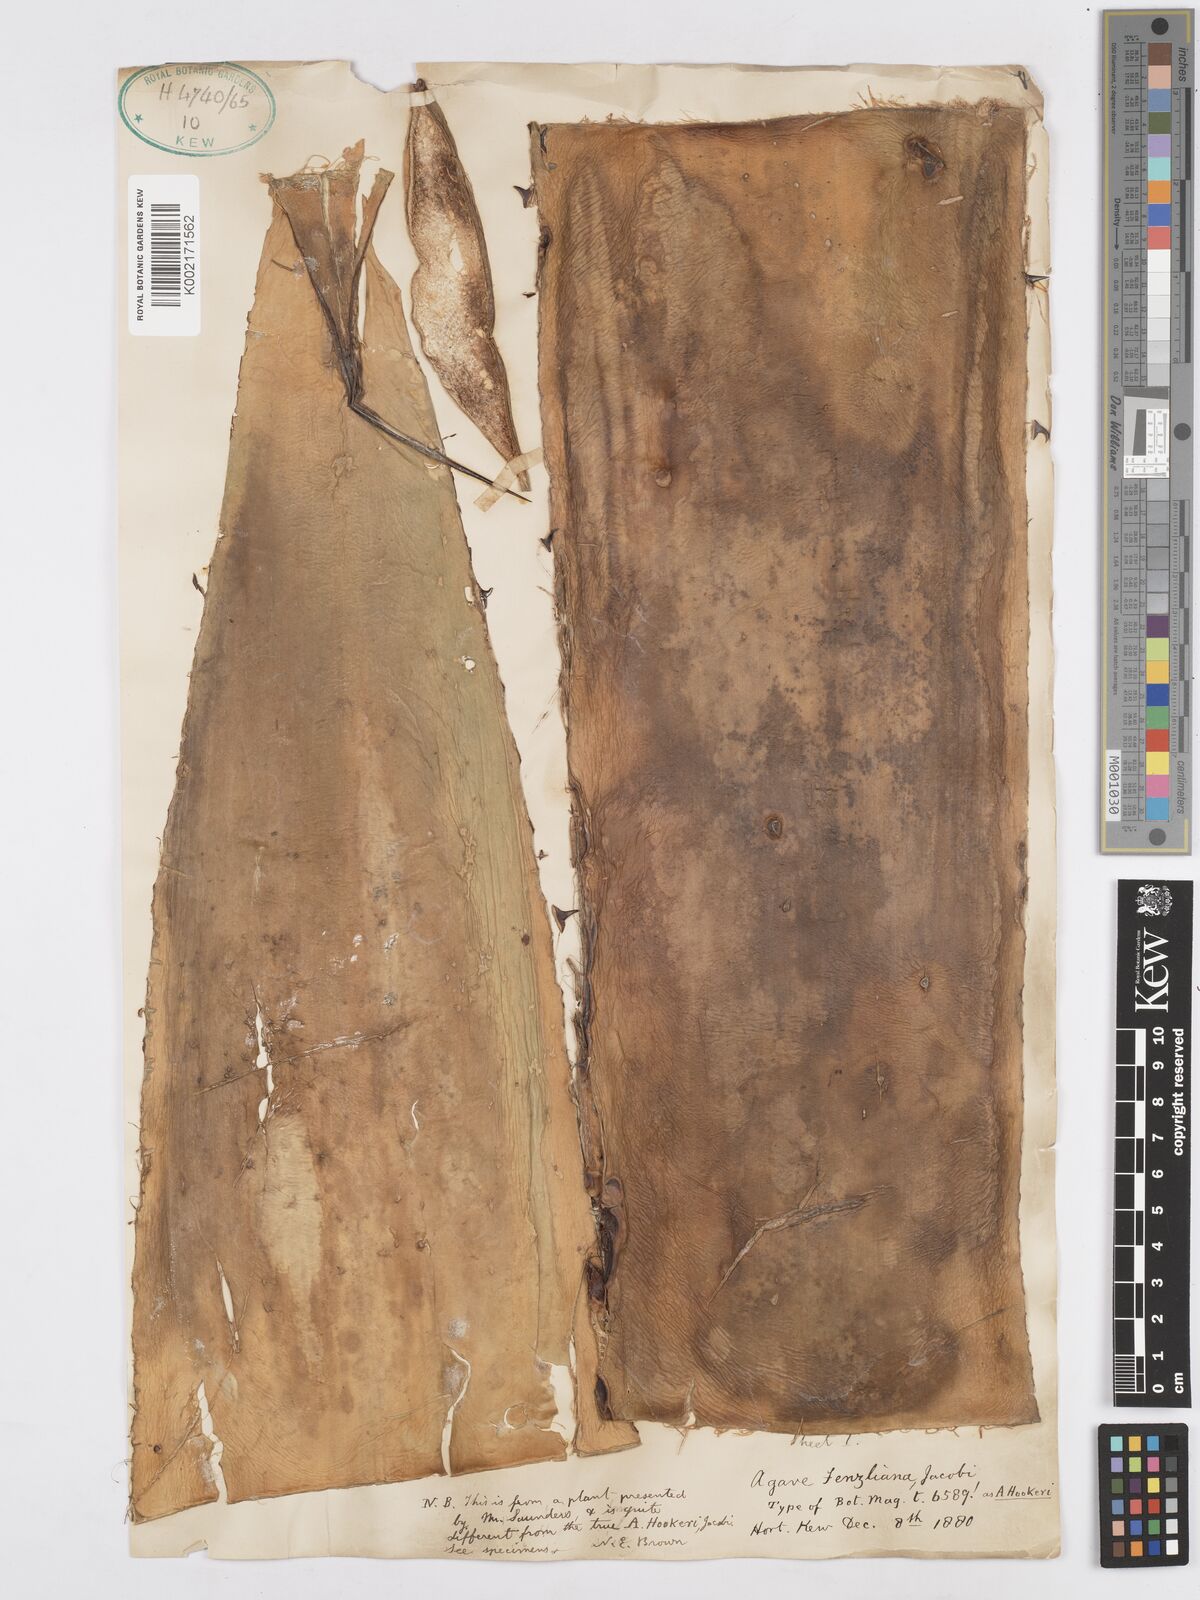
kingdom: Plantae
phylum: Tracheophyta
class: Liliopsida
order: Asparagales
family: Asparagaceae
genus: Agave
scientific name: Agave inaequidens
